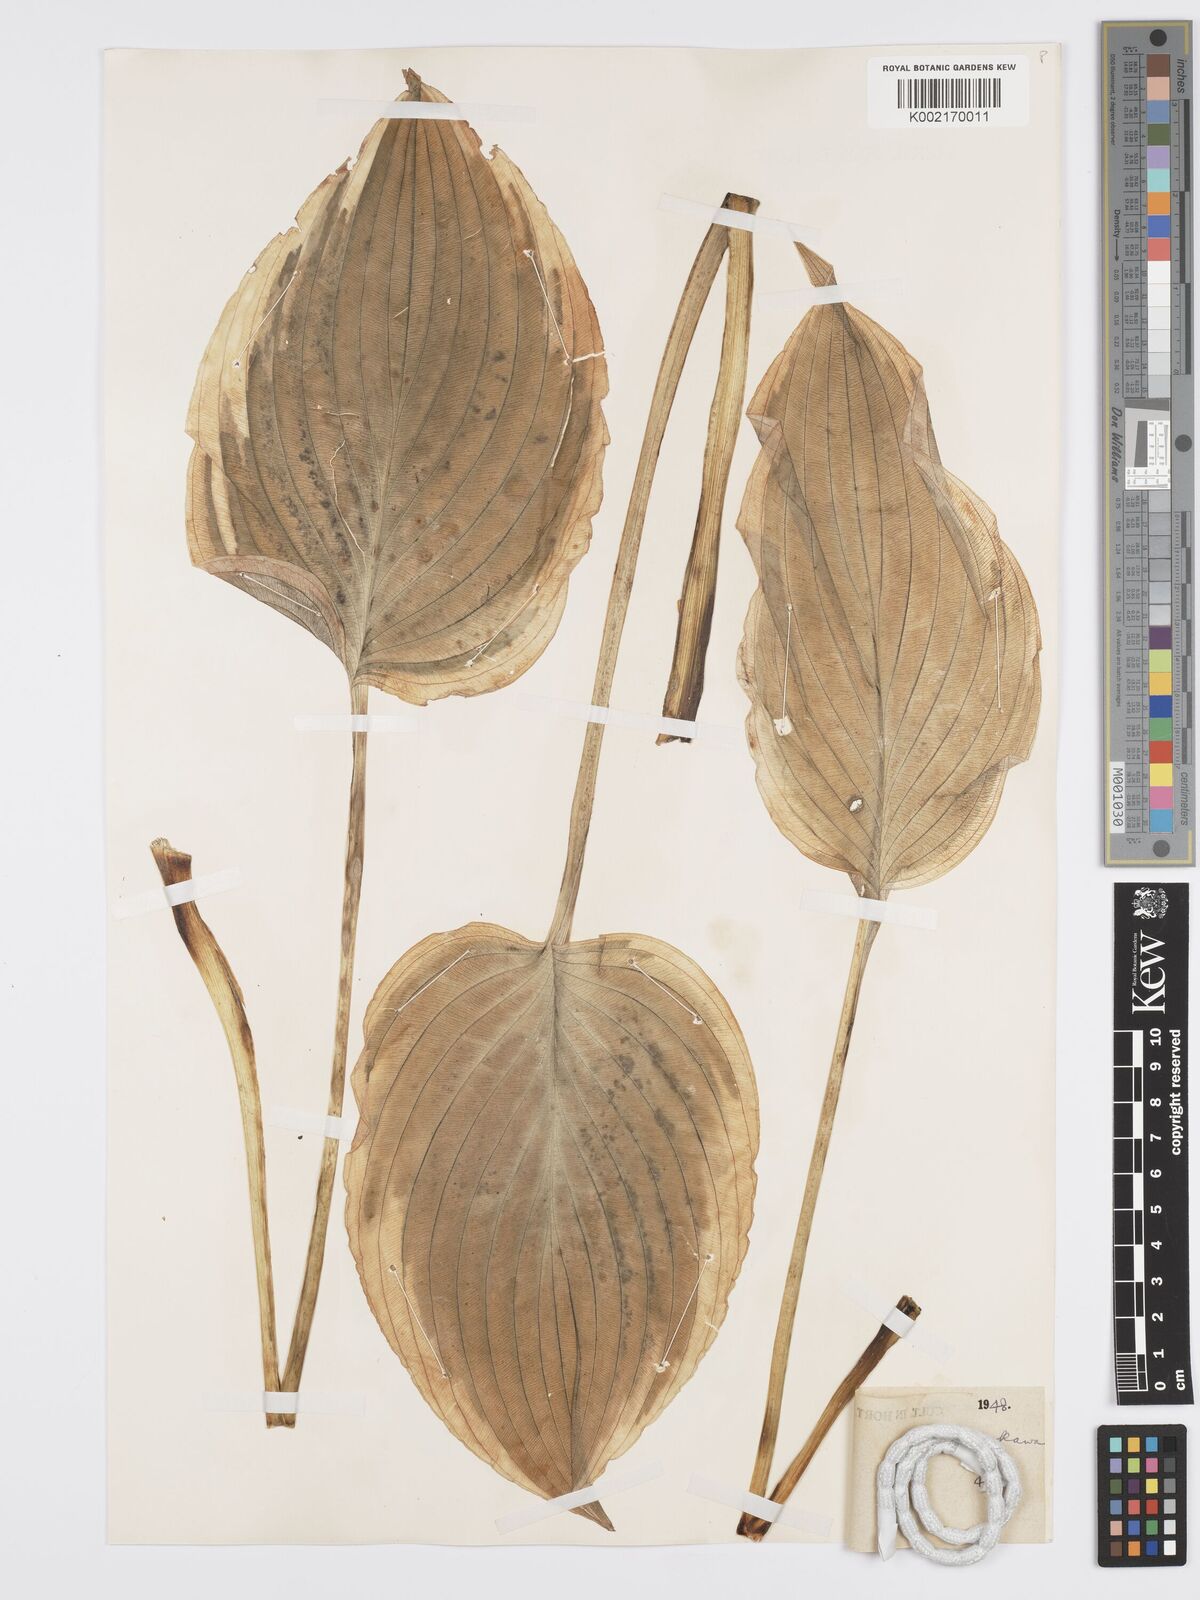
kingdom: Plantae
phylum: Tracheophyta
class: Liliopsida
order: Asparagales
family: Asparagaceae
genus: Hosta
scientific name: Hosta sieboldiana
